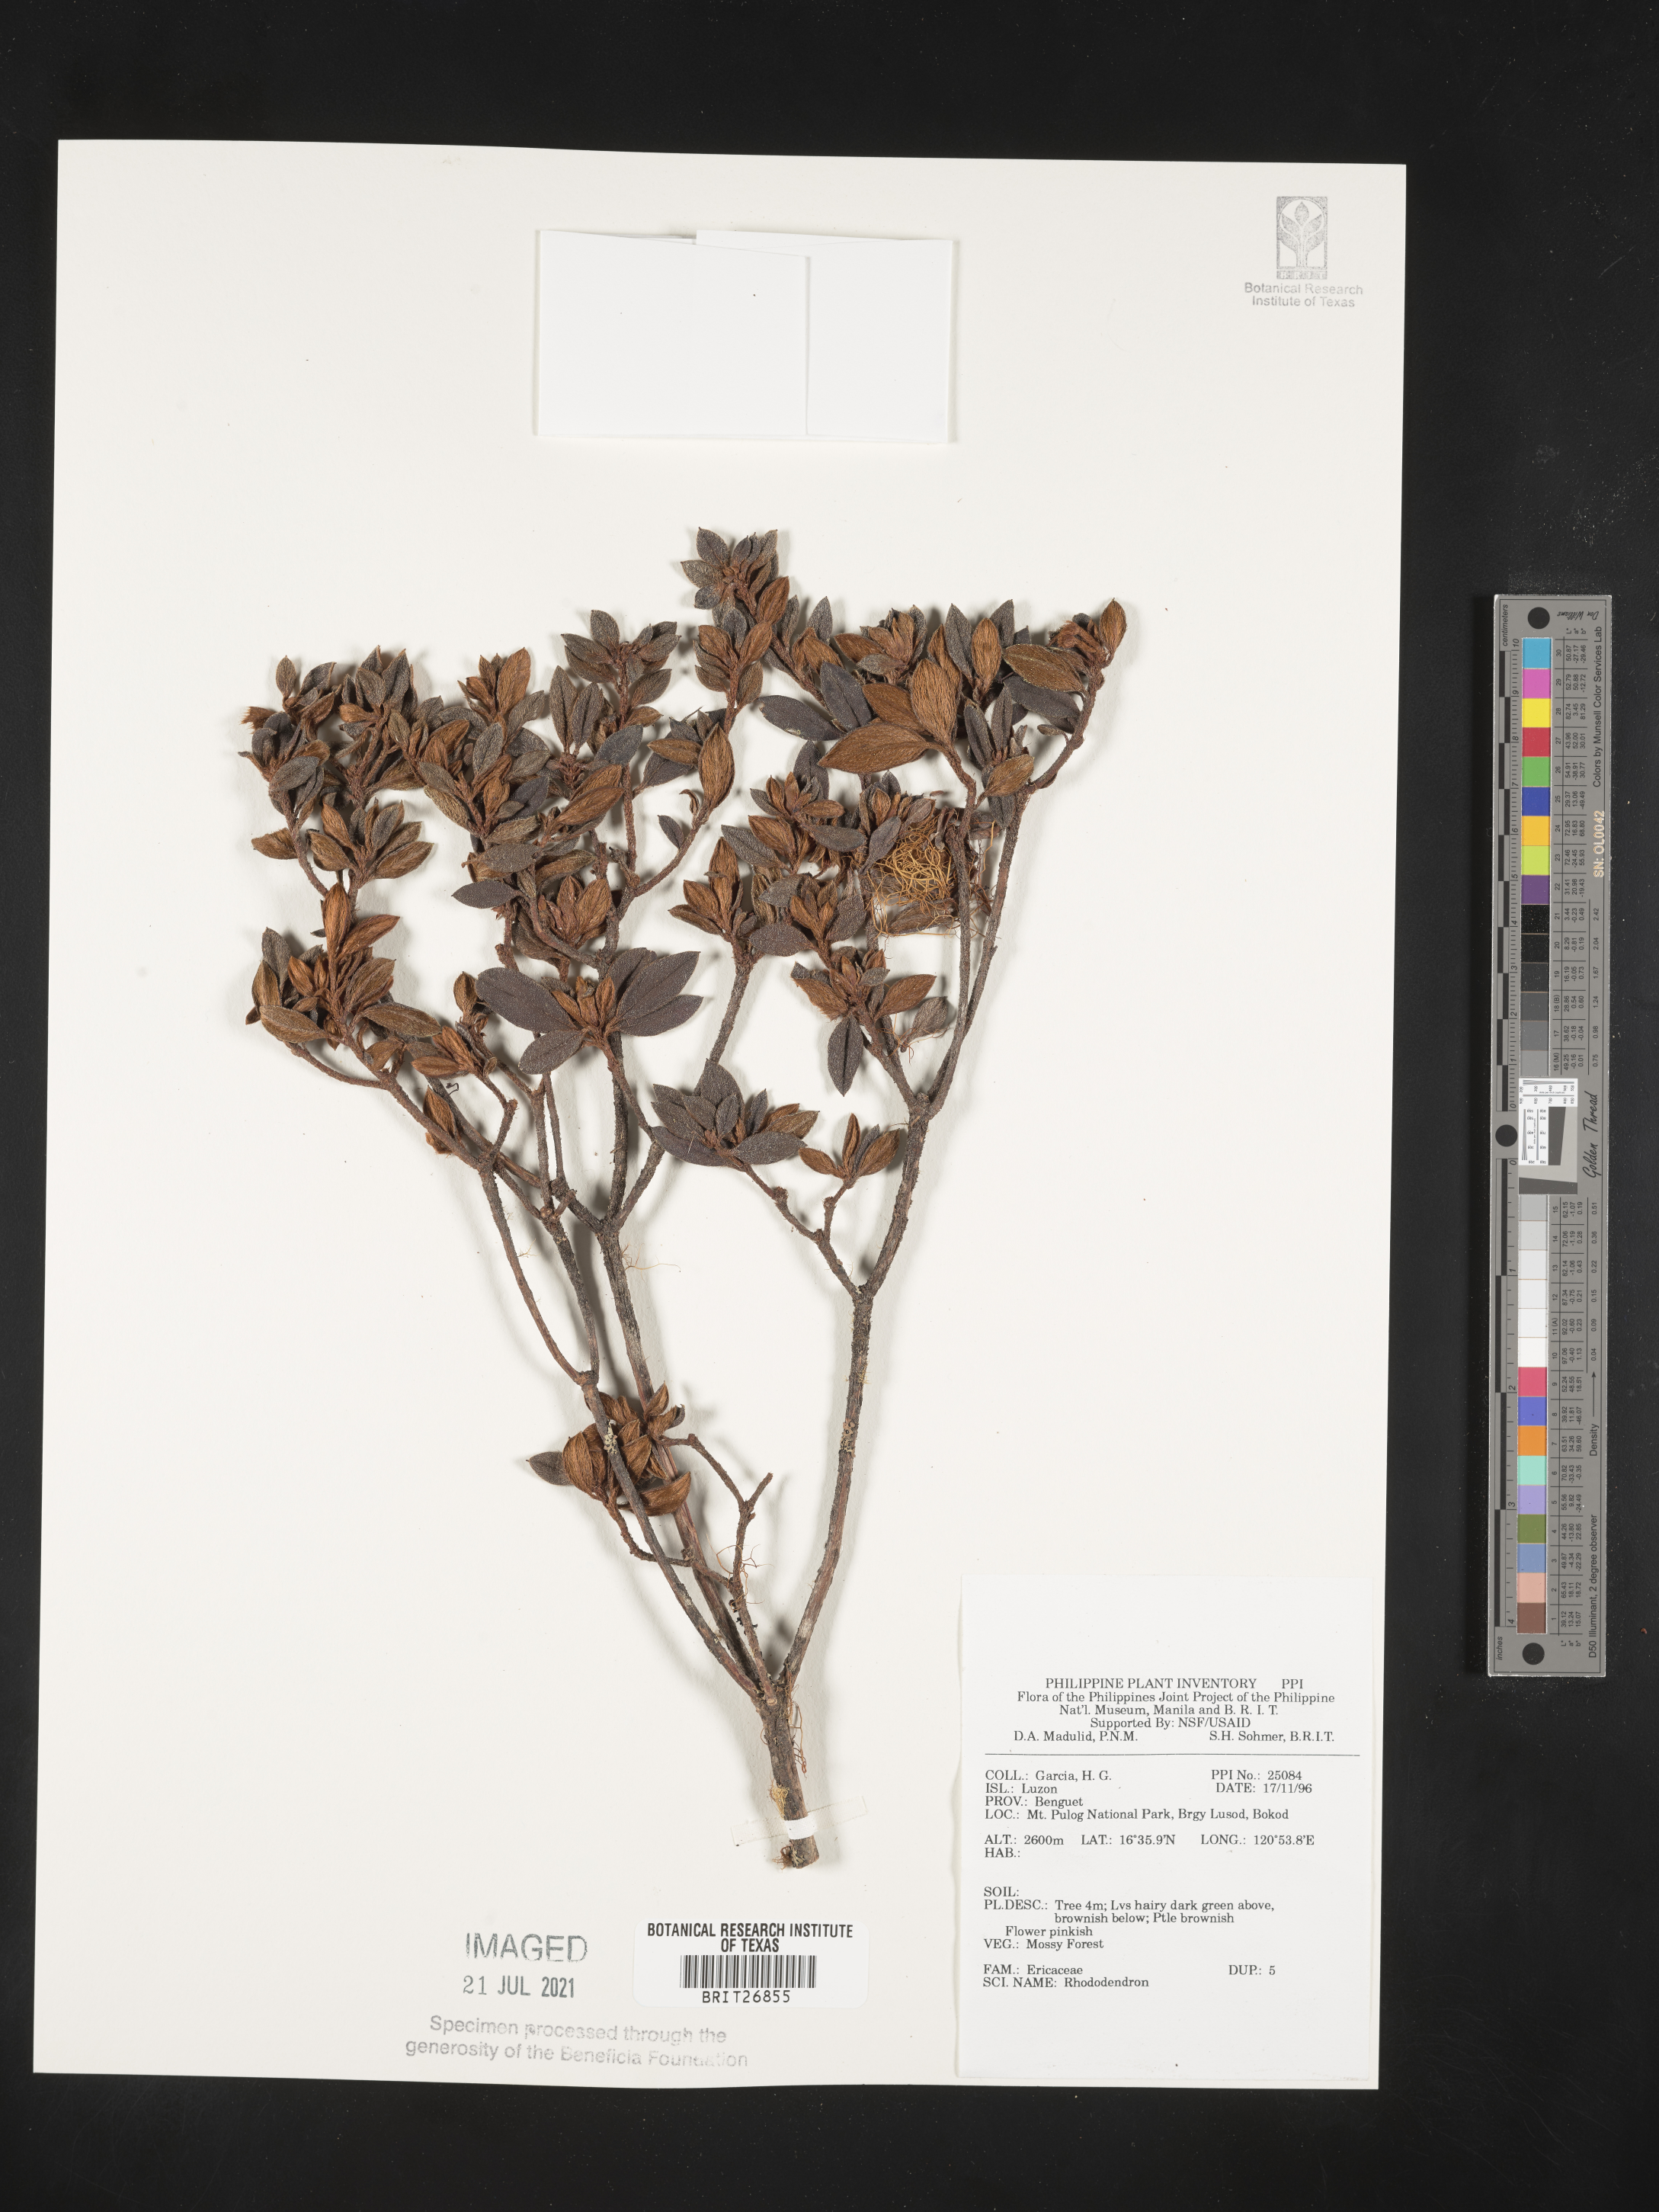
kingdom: Plantae
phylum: Tracheophyta
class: Magnoliopsida
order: Ericales
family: Ericaceae
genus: Rhododendron
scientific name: Rhododendron
